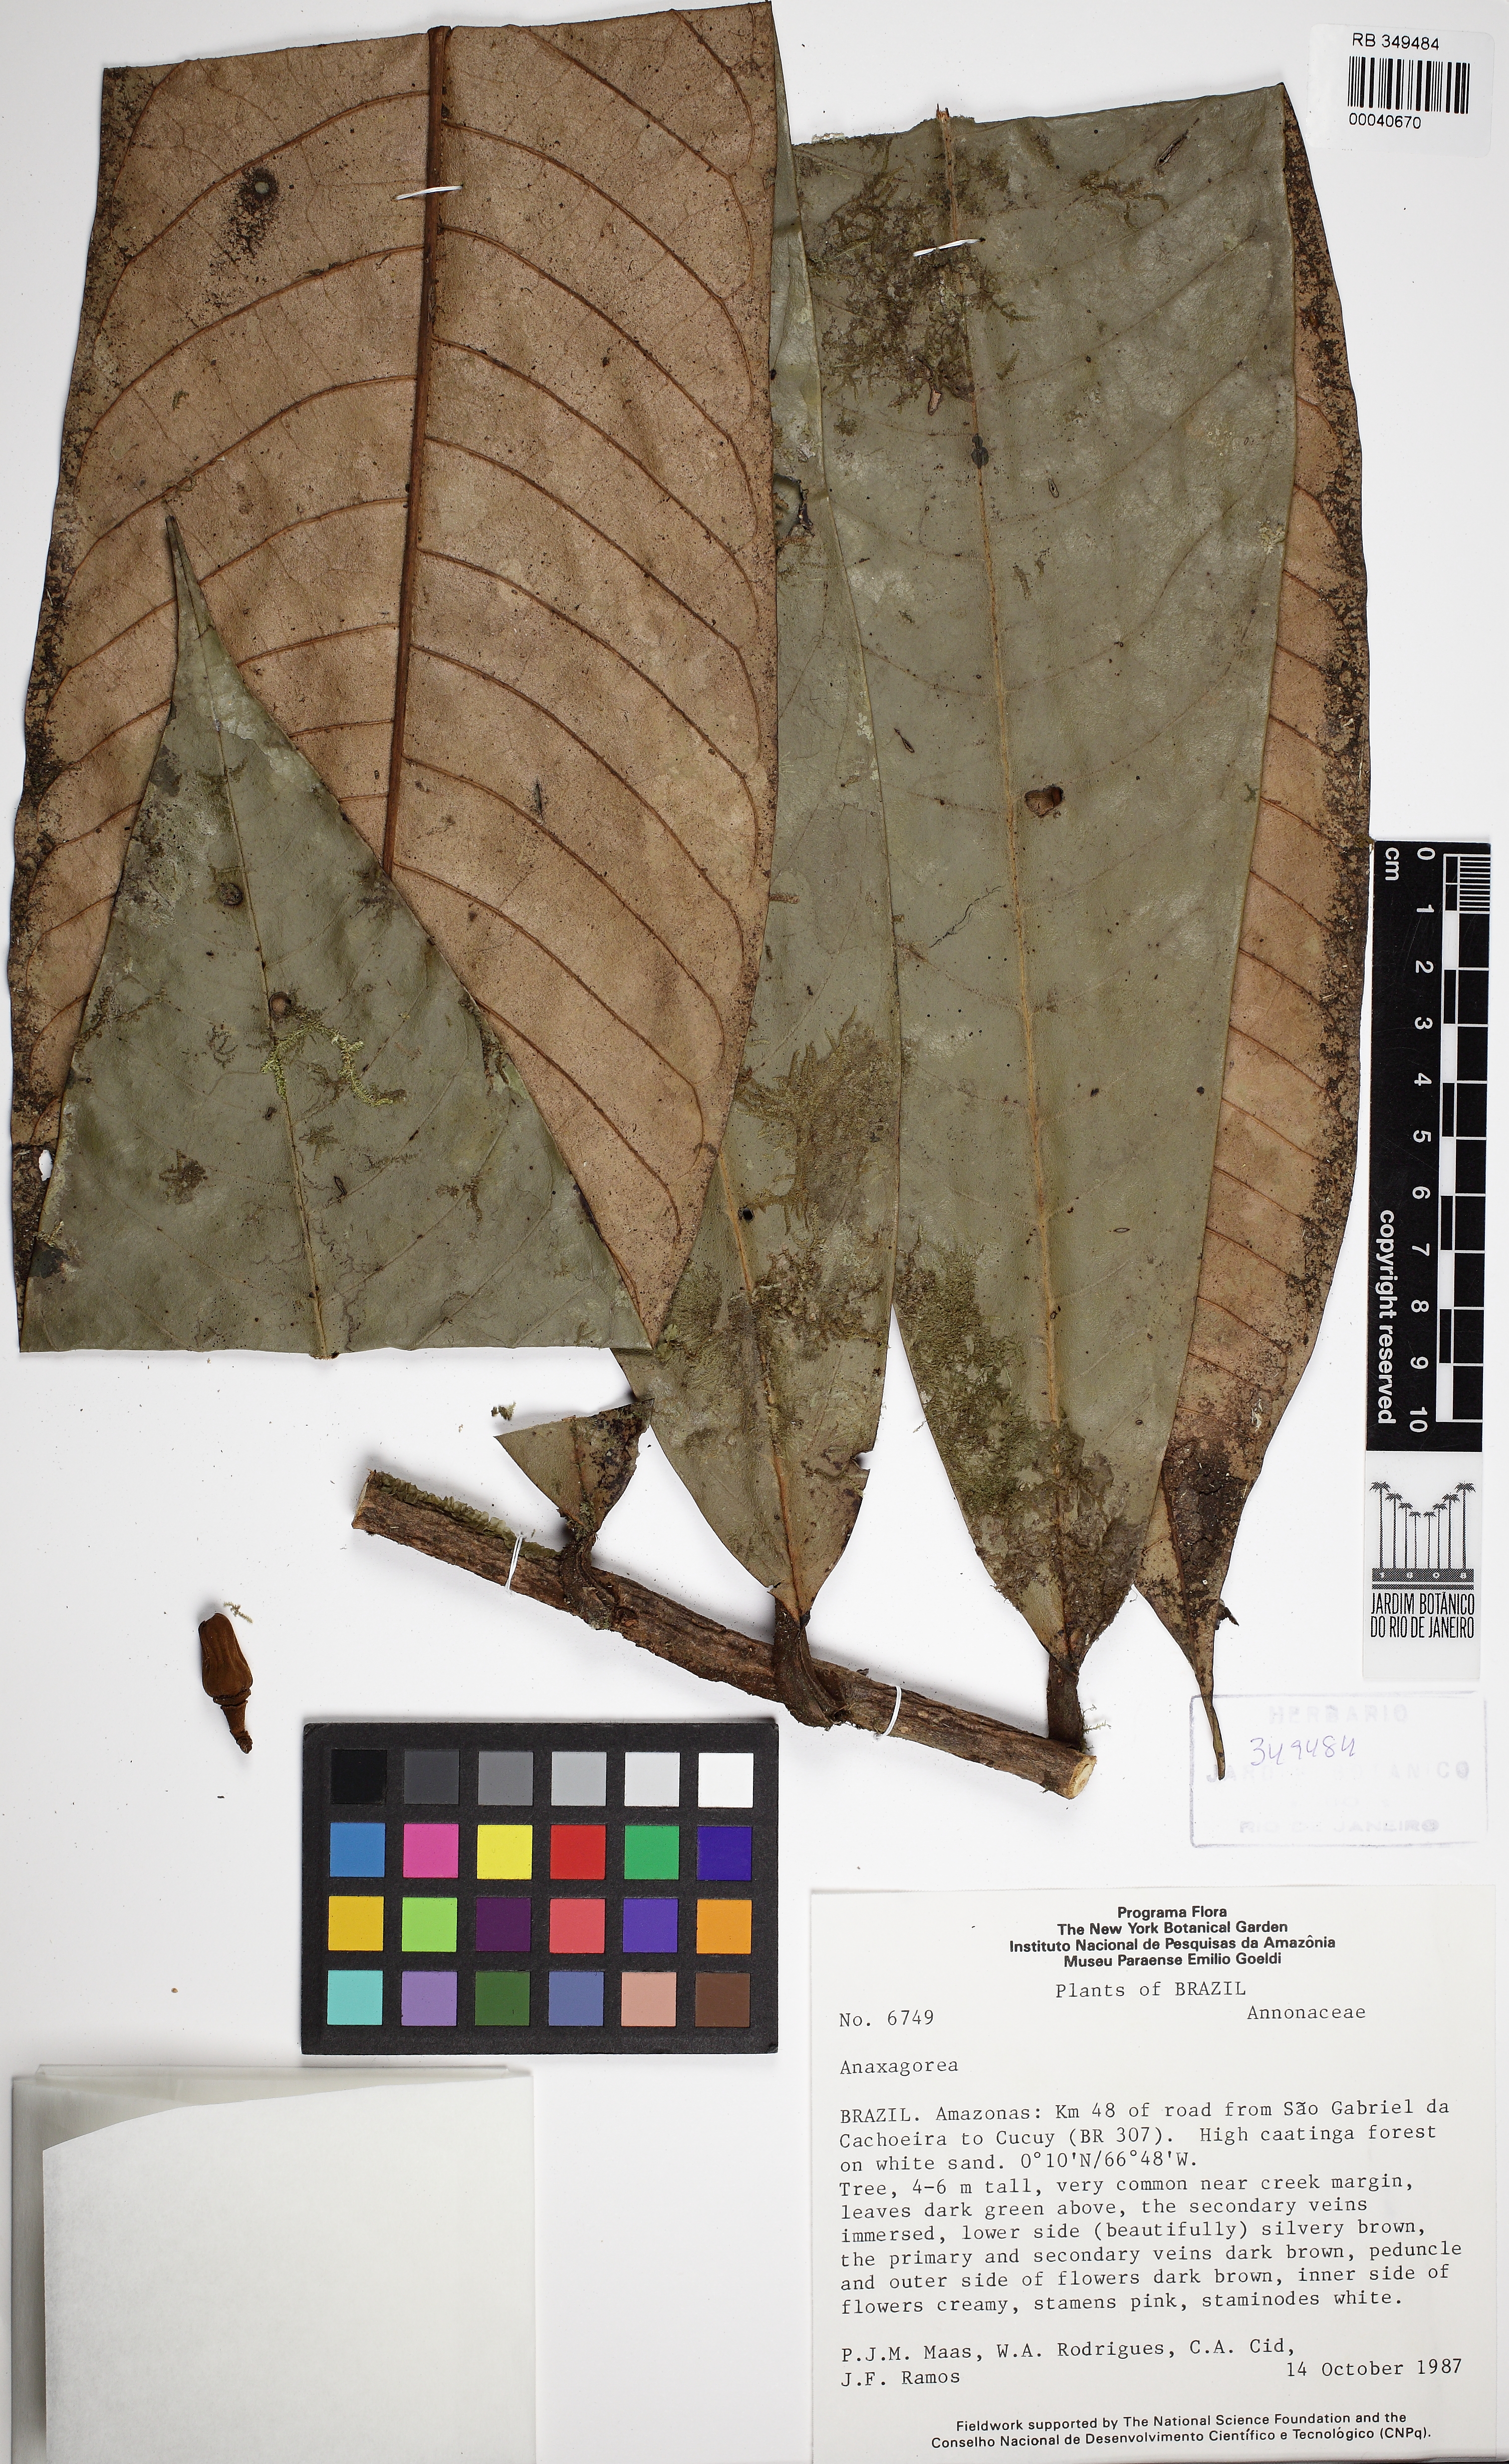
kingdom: Plantae
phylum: Tracheophyta
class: Magnoliopsida
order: Magnoliales
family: Annonaceae
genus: Anaxagorea
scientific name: Anaxagorea
